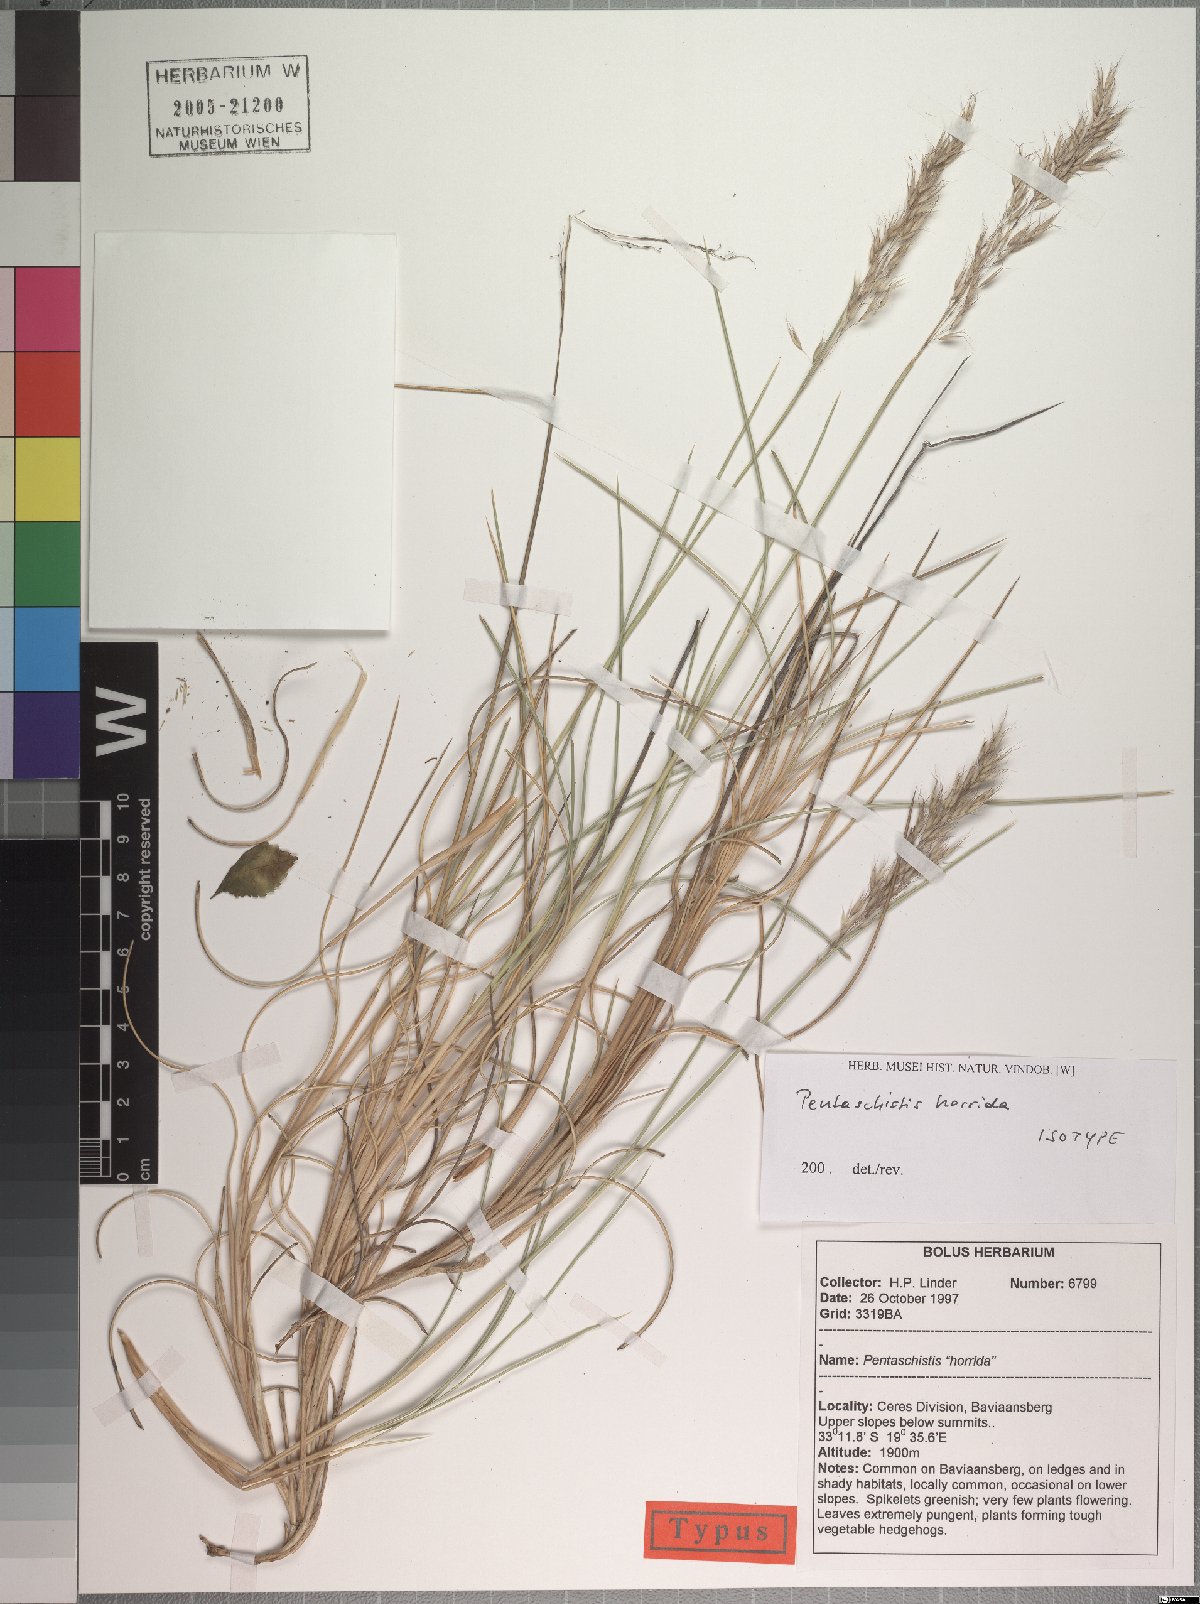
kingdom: Plantae
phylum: Tracheophyta
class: Liliopsida
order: Poales
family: Poaceae
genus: Pentameris
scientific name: Pentameris horrida
